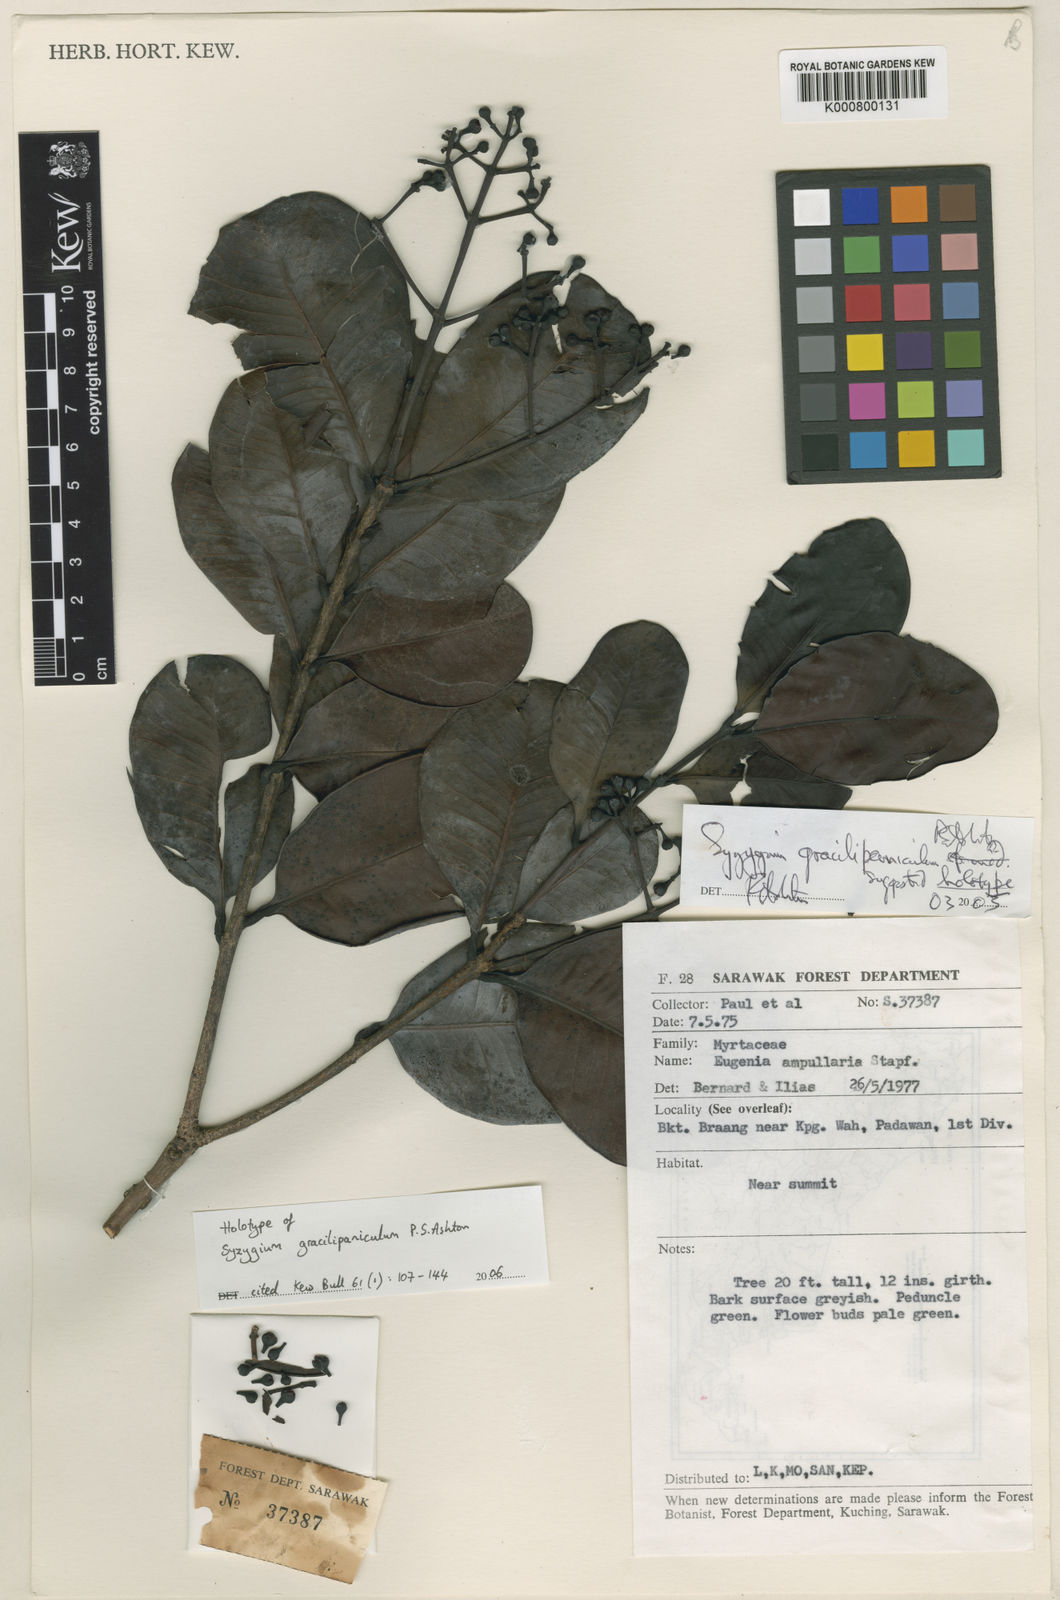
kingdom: Plantae
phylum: Tracheophyta
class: Magnoliopsida
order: Myrtales
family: Myrtaceae
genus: Syzygium
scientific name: Syzygium gracilipaniculum
